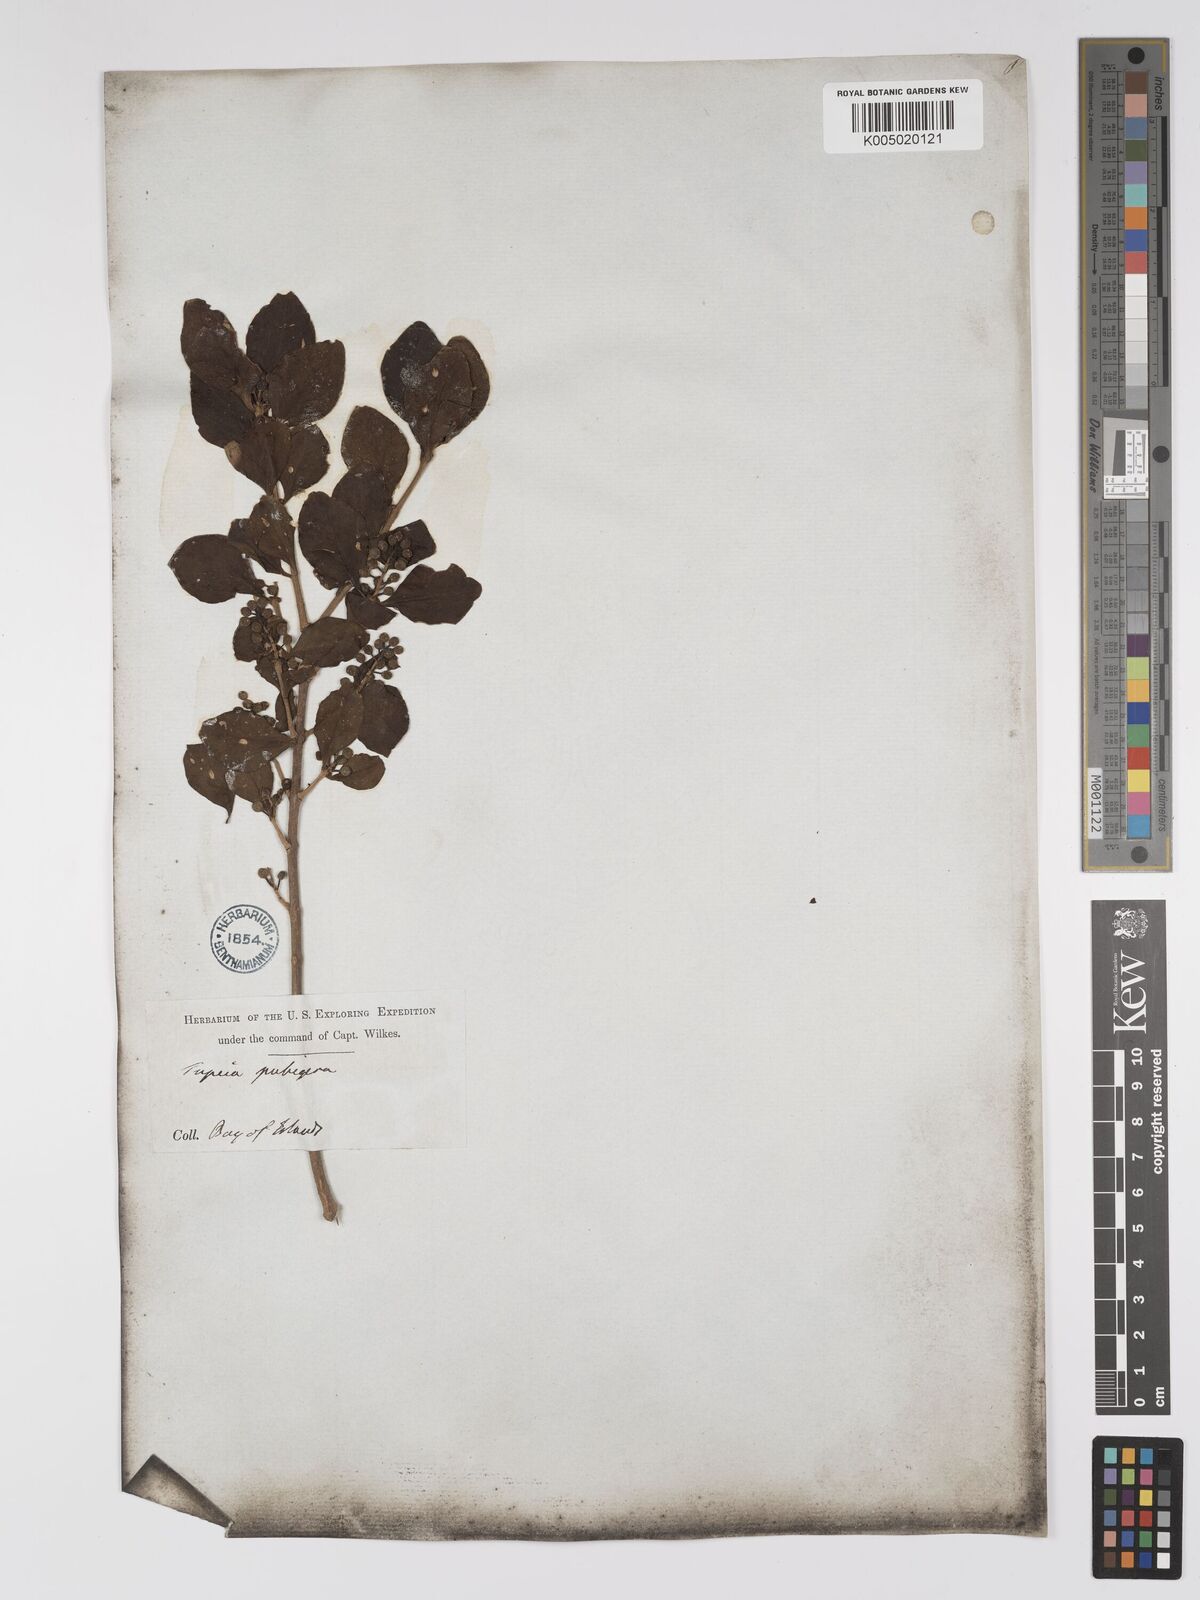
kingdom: Plantae
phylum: Tracheophyta
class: Magnoliopsida
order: Santalales
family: Loranthaceae
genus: Tupeia
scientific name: Tupeia antarctica
